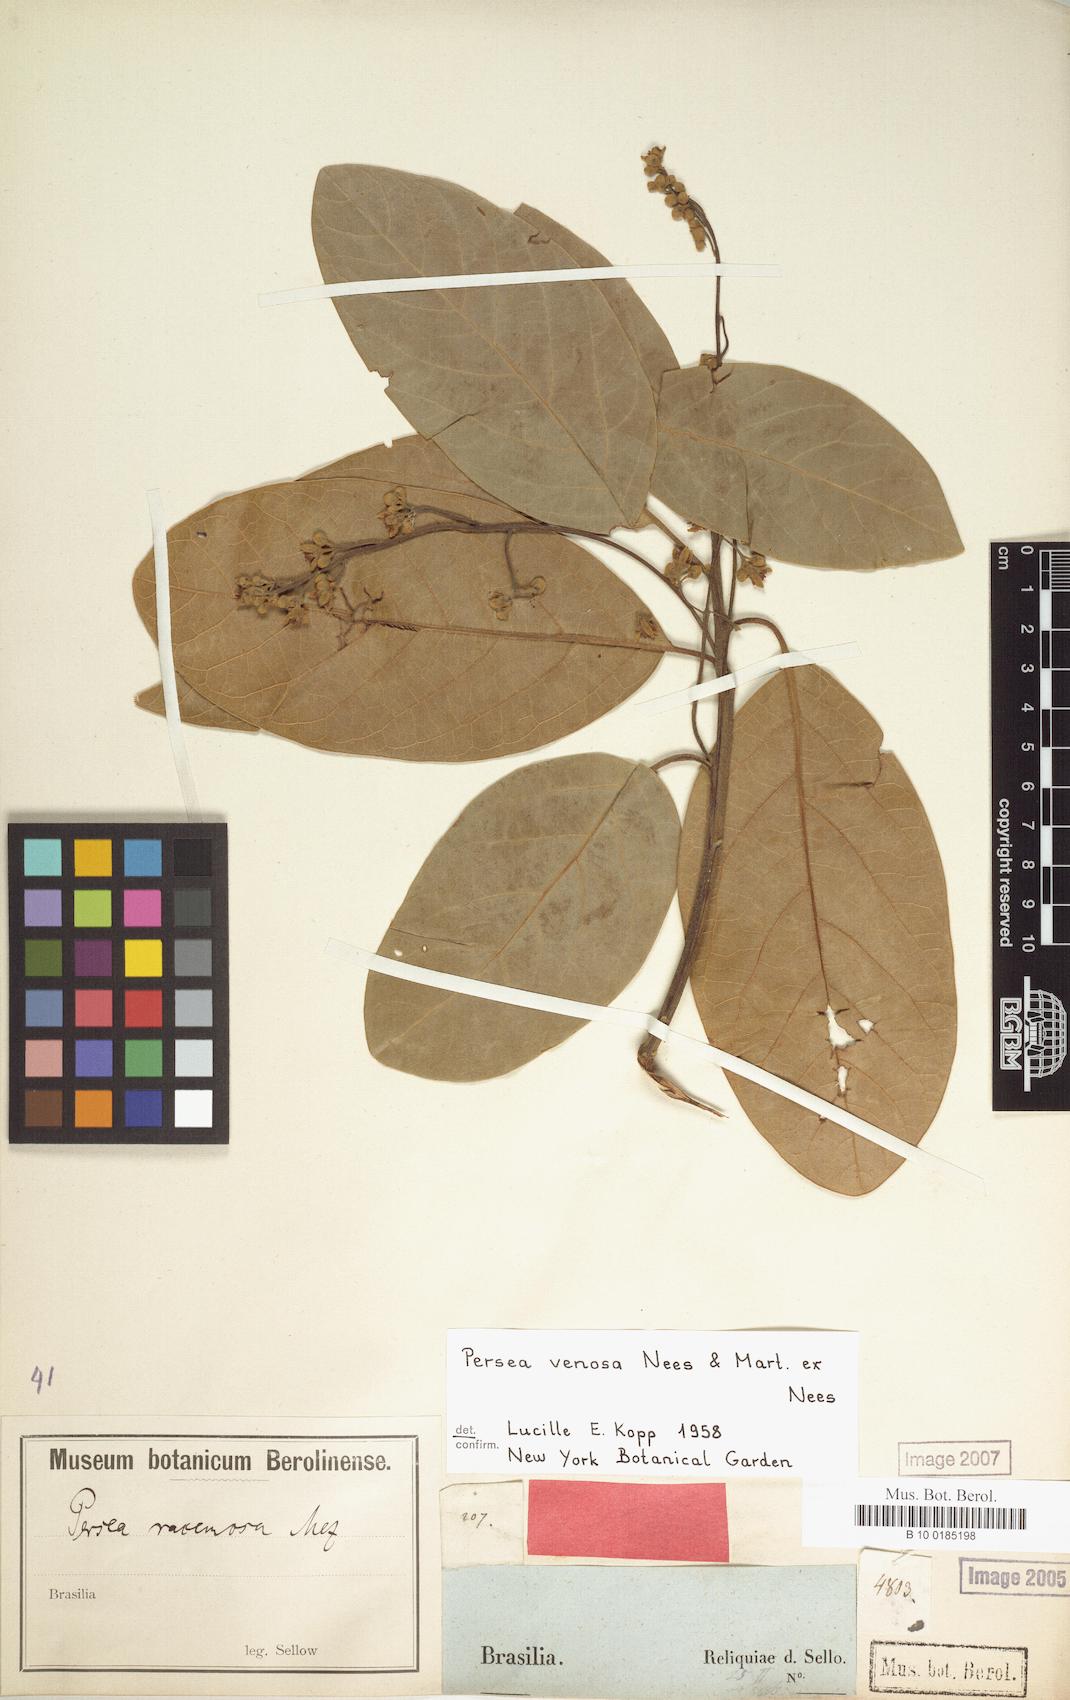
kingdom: Plantae
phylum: Tracheophyta
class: Magnoliopsida
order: Laurales
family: Lauraceae
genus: Persea
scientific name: Persea venosa
